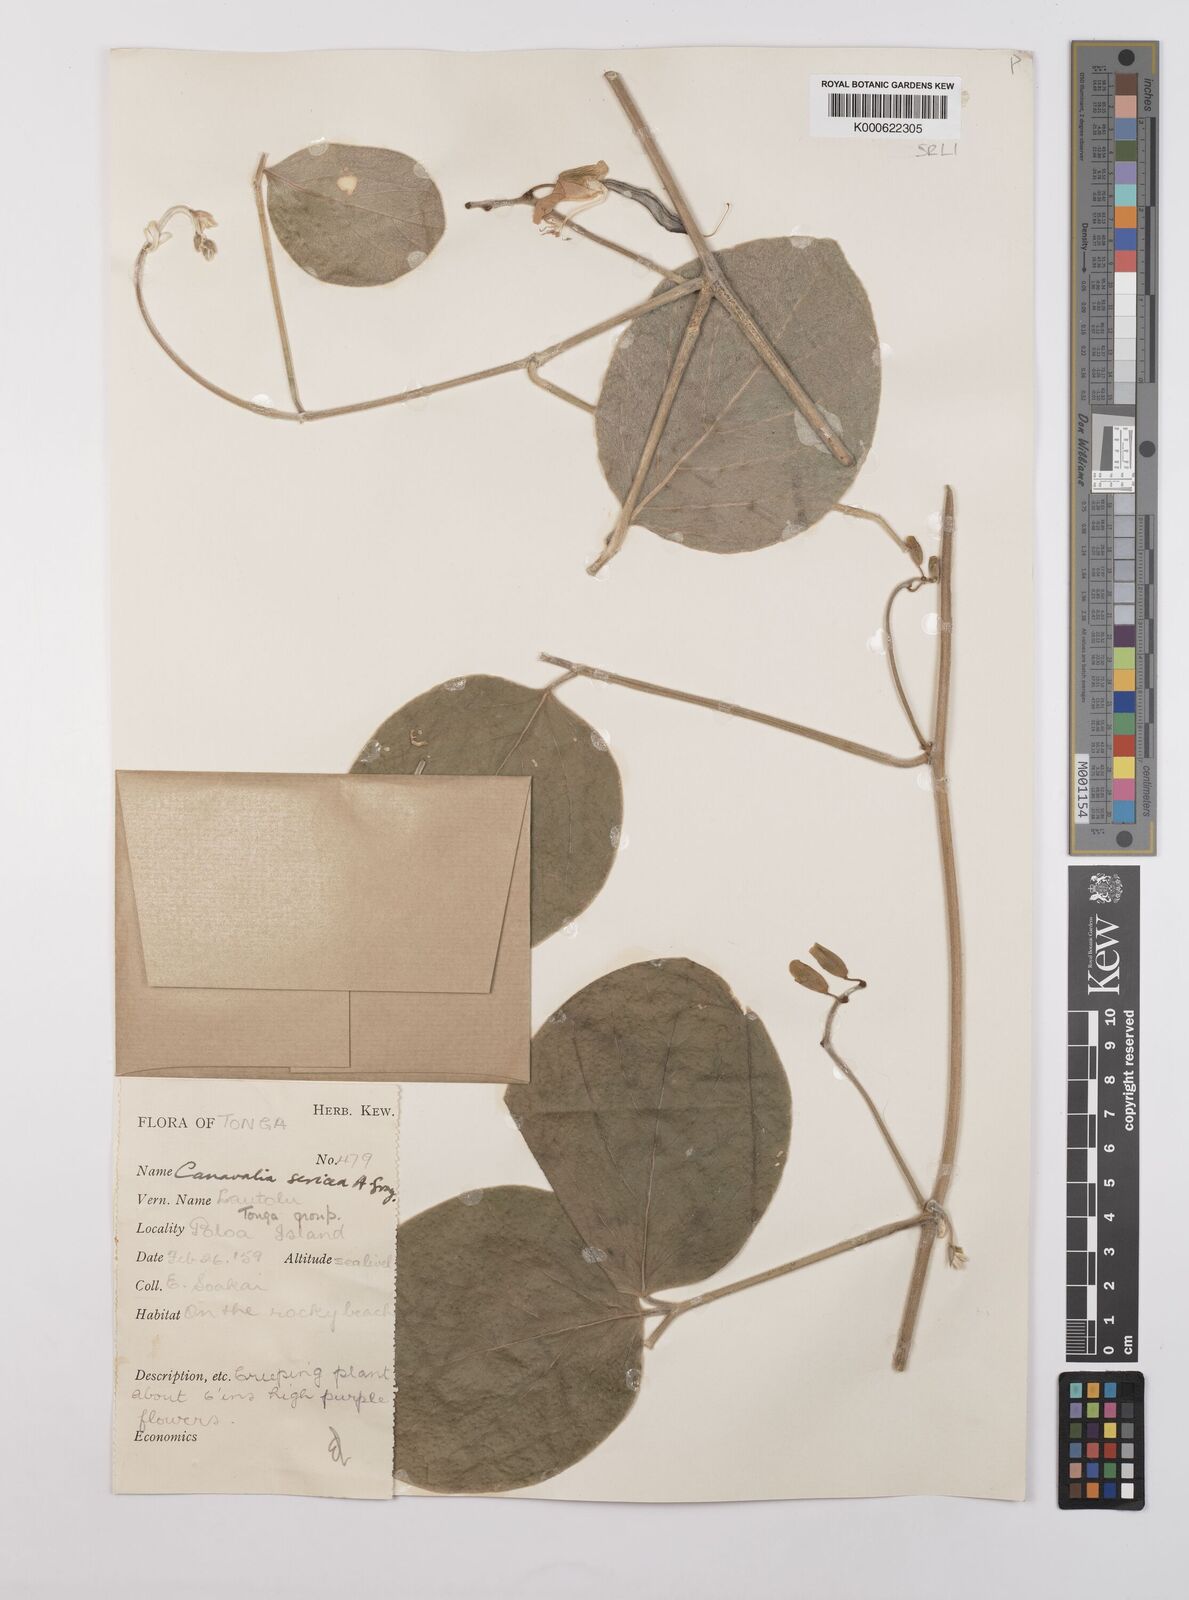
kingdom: Plantae
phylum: Tracheophyta
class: Magnoliopsida
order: Fabales
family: Fabaceae
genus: Canavalia
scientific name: Canavalia sericea
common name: Silky jackbean
